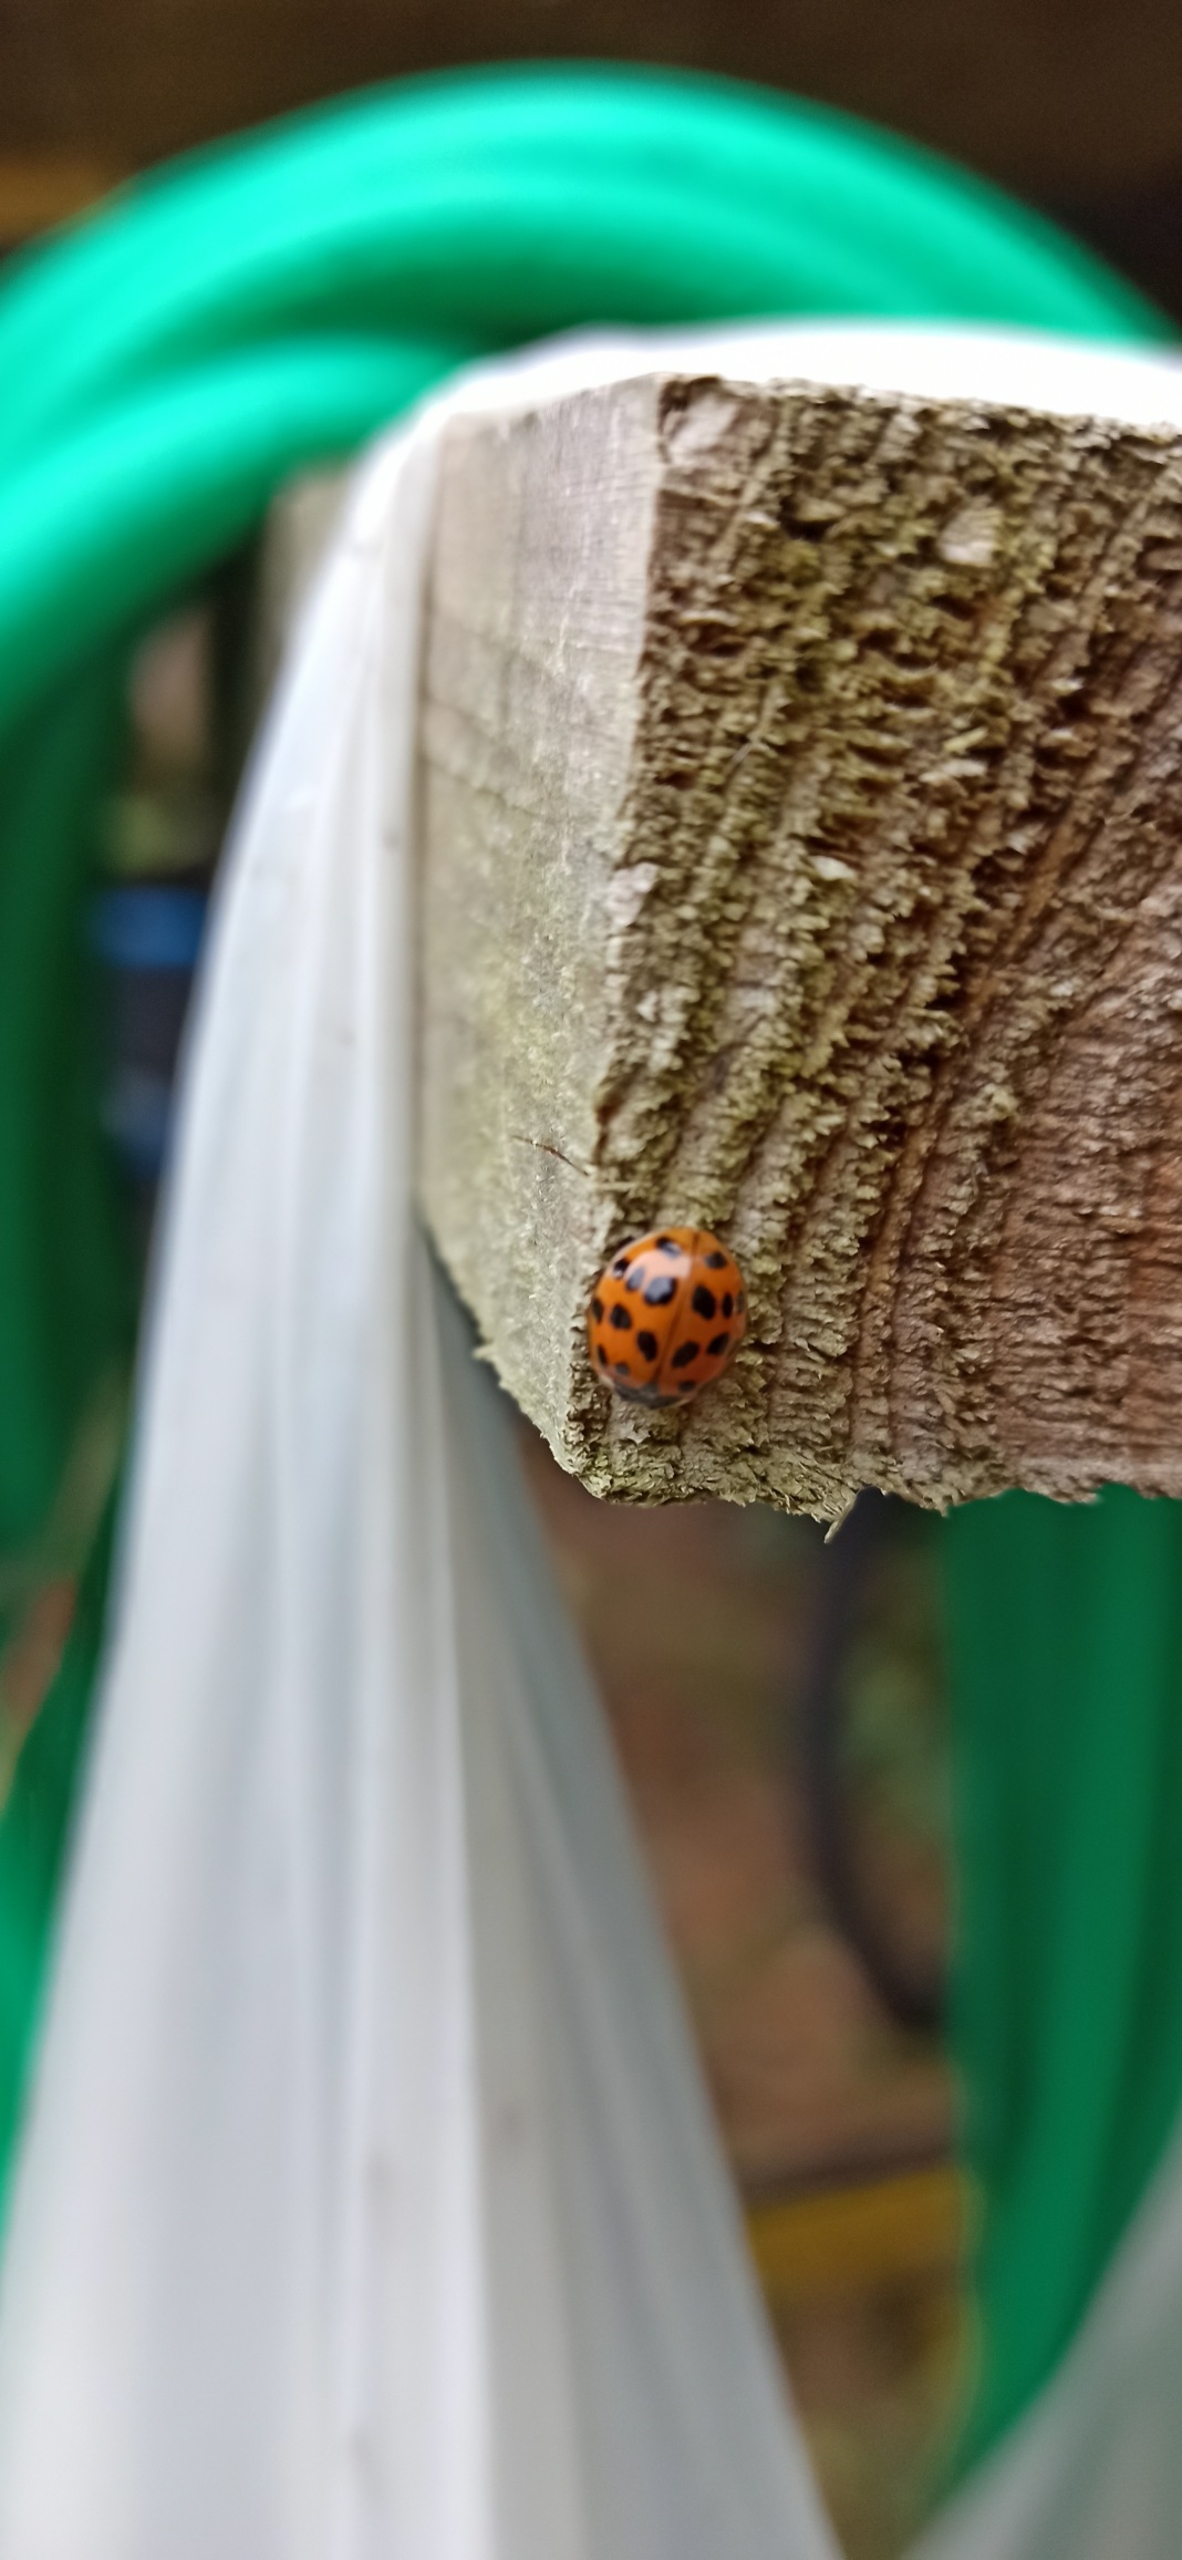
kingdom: Animalia
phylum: Arthropoda
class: Insecta
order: Coleoptera
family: Coccinellidae
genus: Harmonia
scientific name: Harmonia axyridis
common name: Harlekinmariehøne
